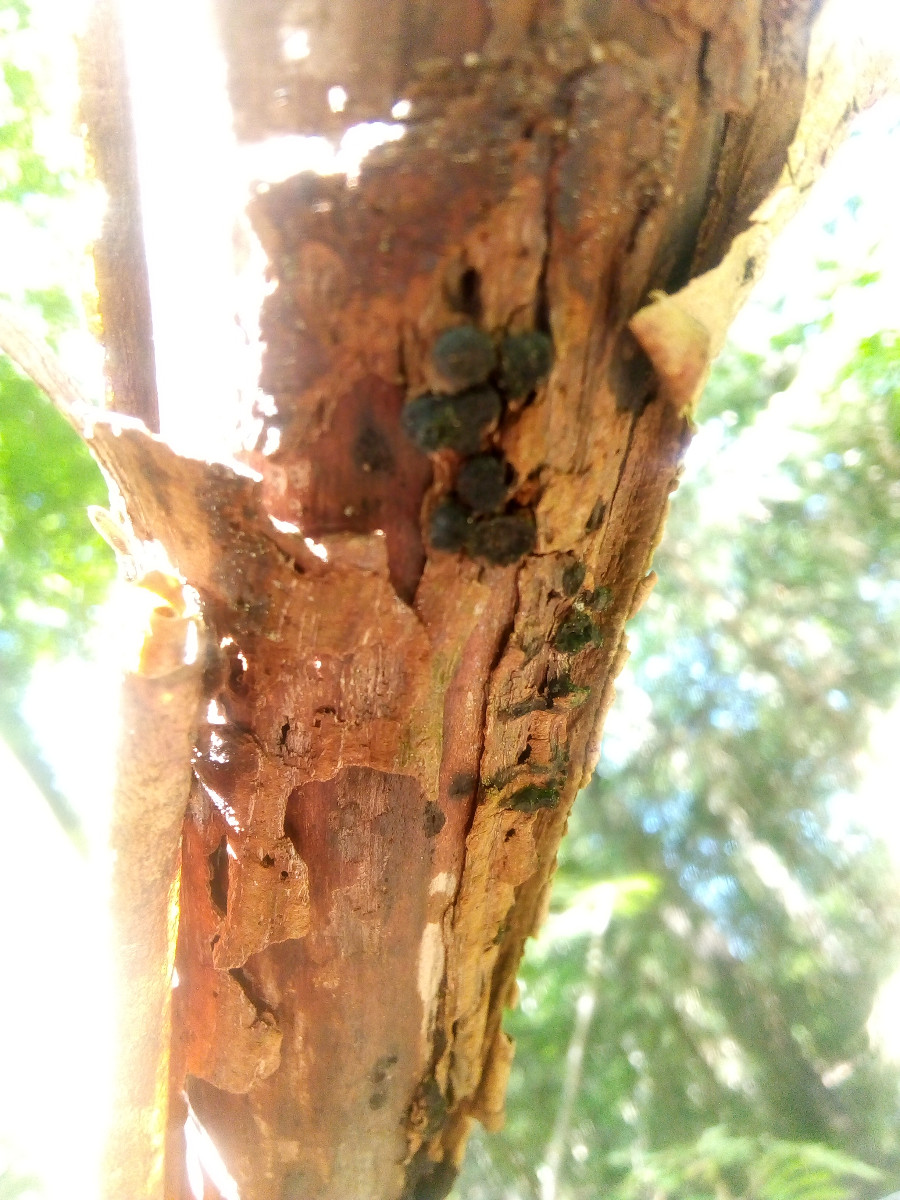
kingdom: Fungi
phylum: Ascomycota
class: Sordariomycetes
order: Xylariales
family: Diatrypaceae
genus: Eutypella
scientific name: Eutypella sorbi
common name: rønne-kulskorpe
